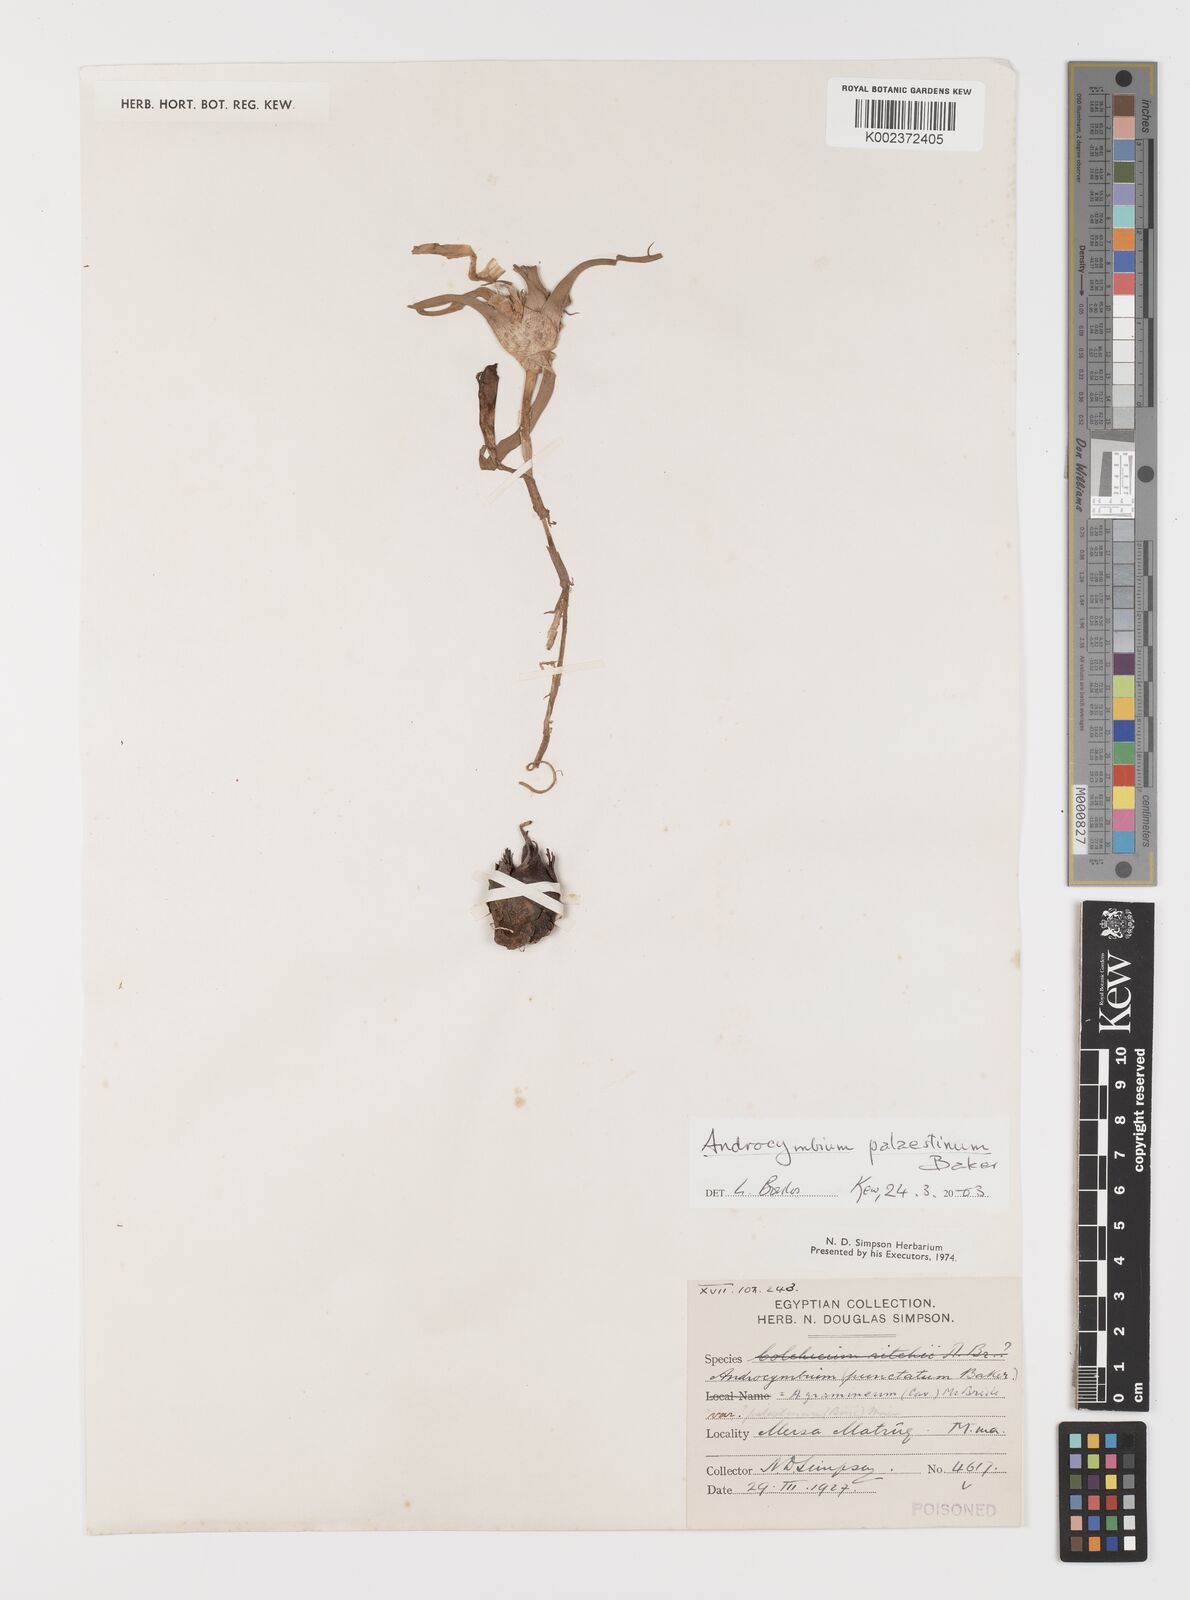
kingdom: Plantae
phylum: Tracheophyta
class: Liliopsida
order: Liliales
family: Colchicaceae
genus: Colchicum
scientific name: Colchicum palaestinum
